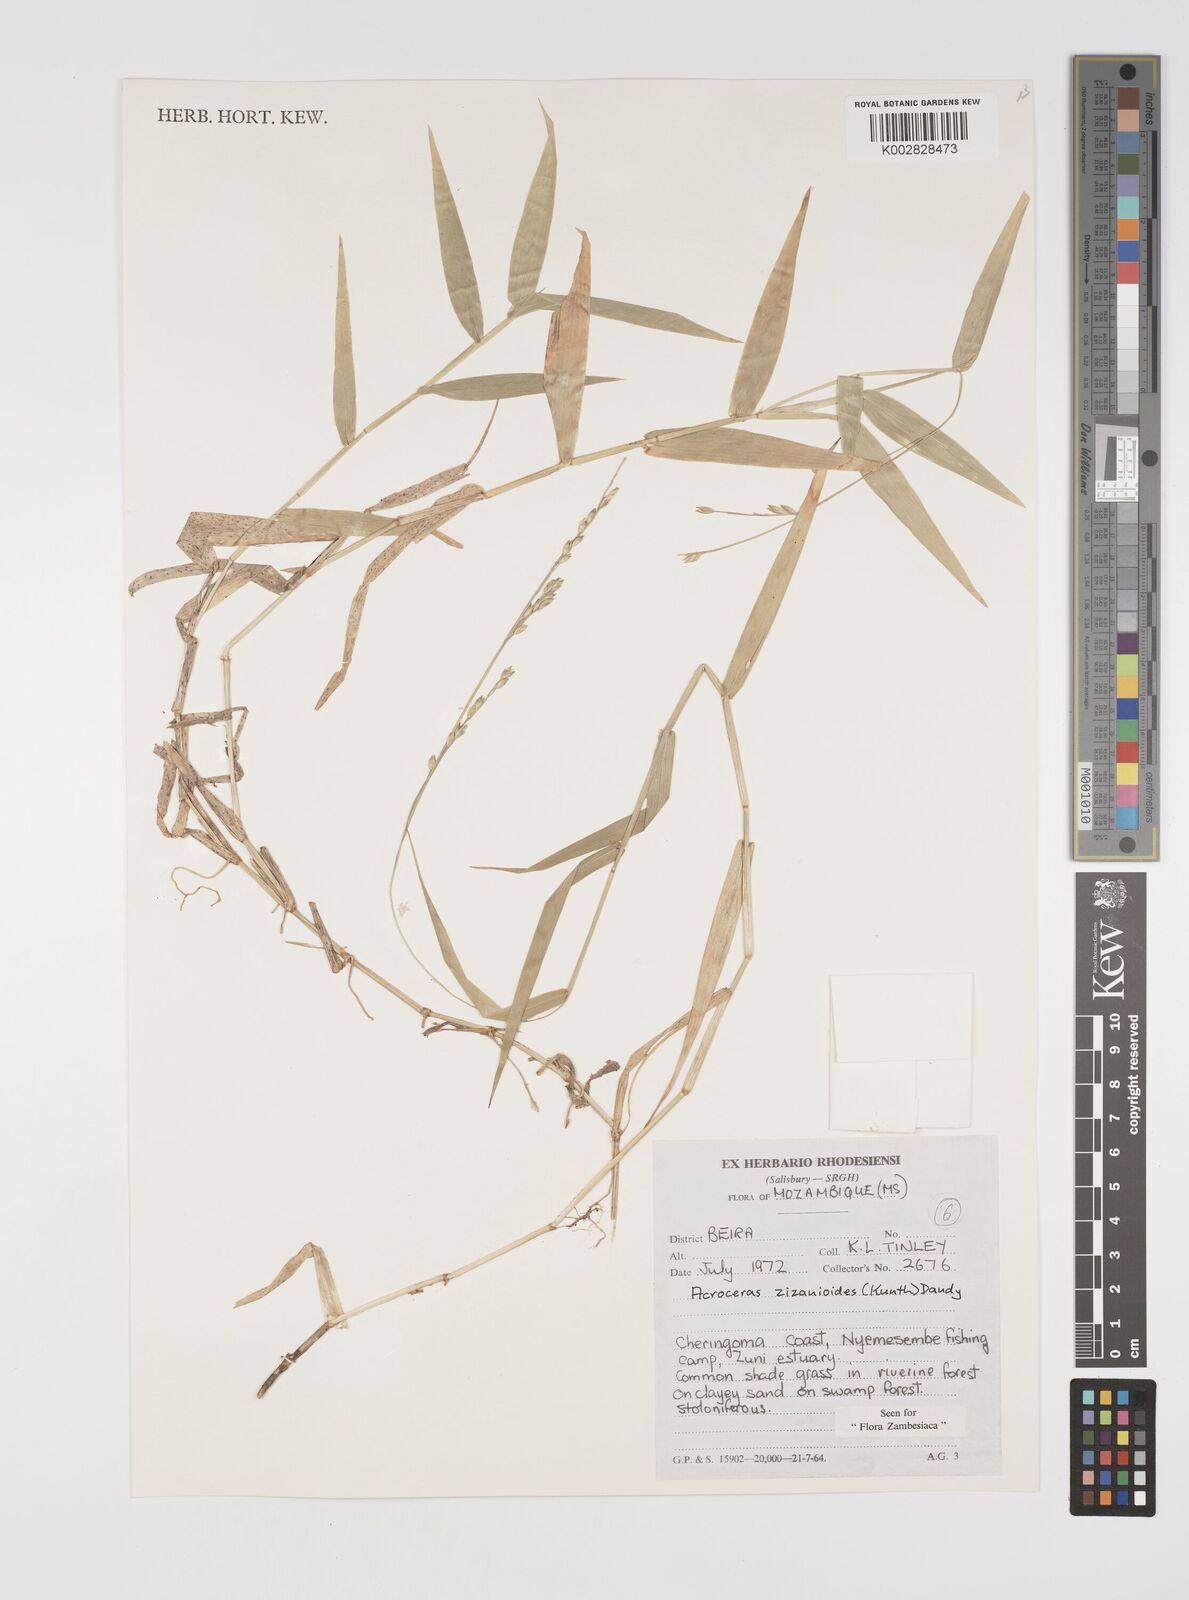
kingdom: Plantae
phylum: Tracheophyta
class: Liliopsida
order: Poales
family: Poaceae
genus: Acroceras
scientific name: Acroceras zizanioides
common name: Oat grass
